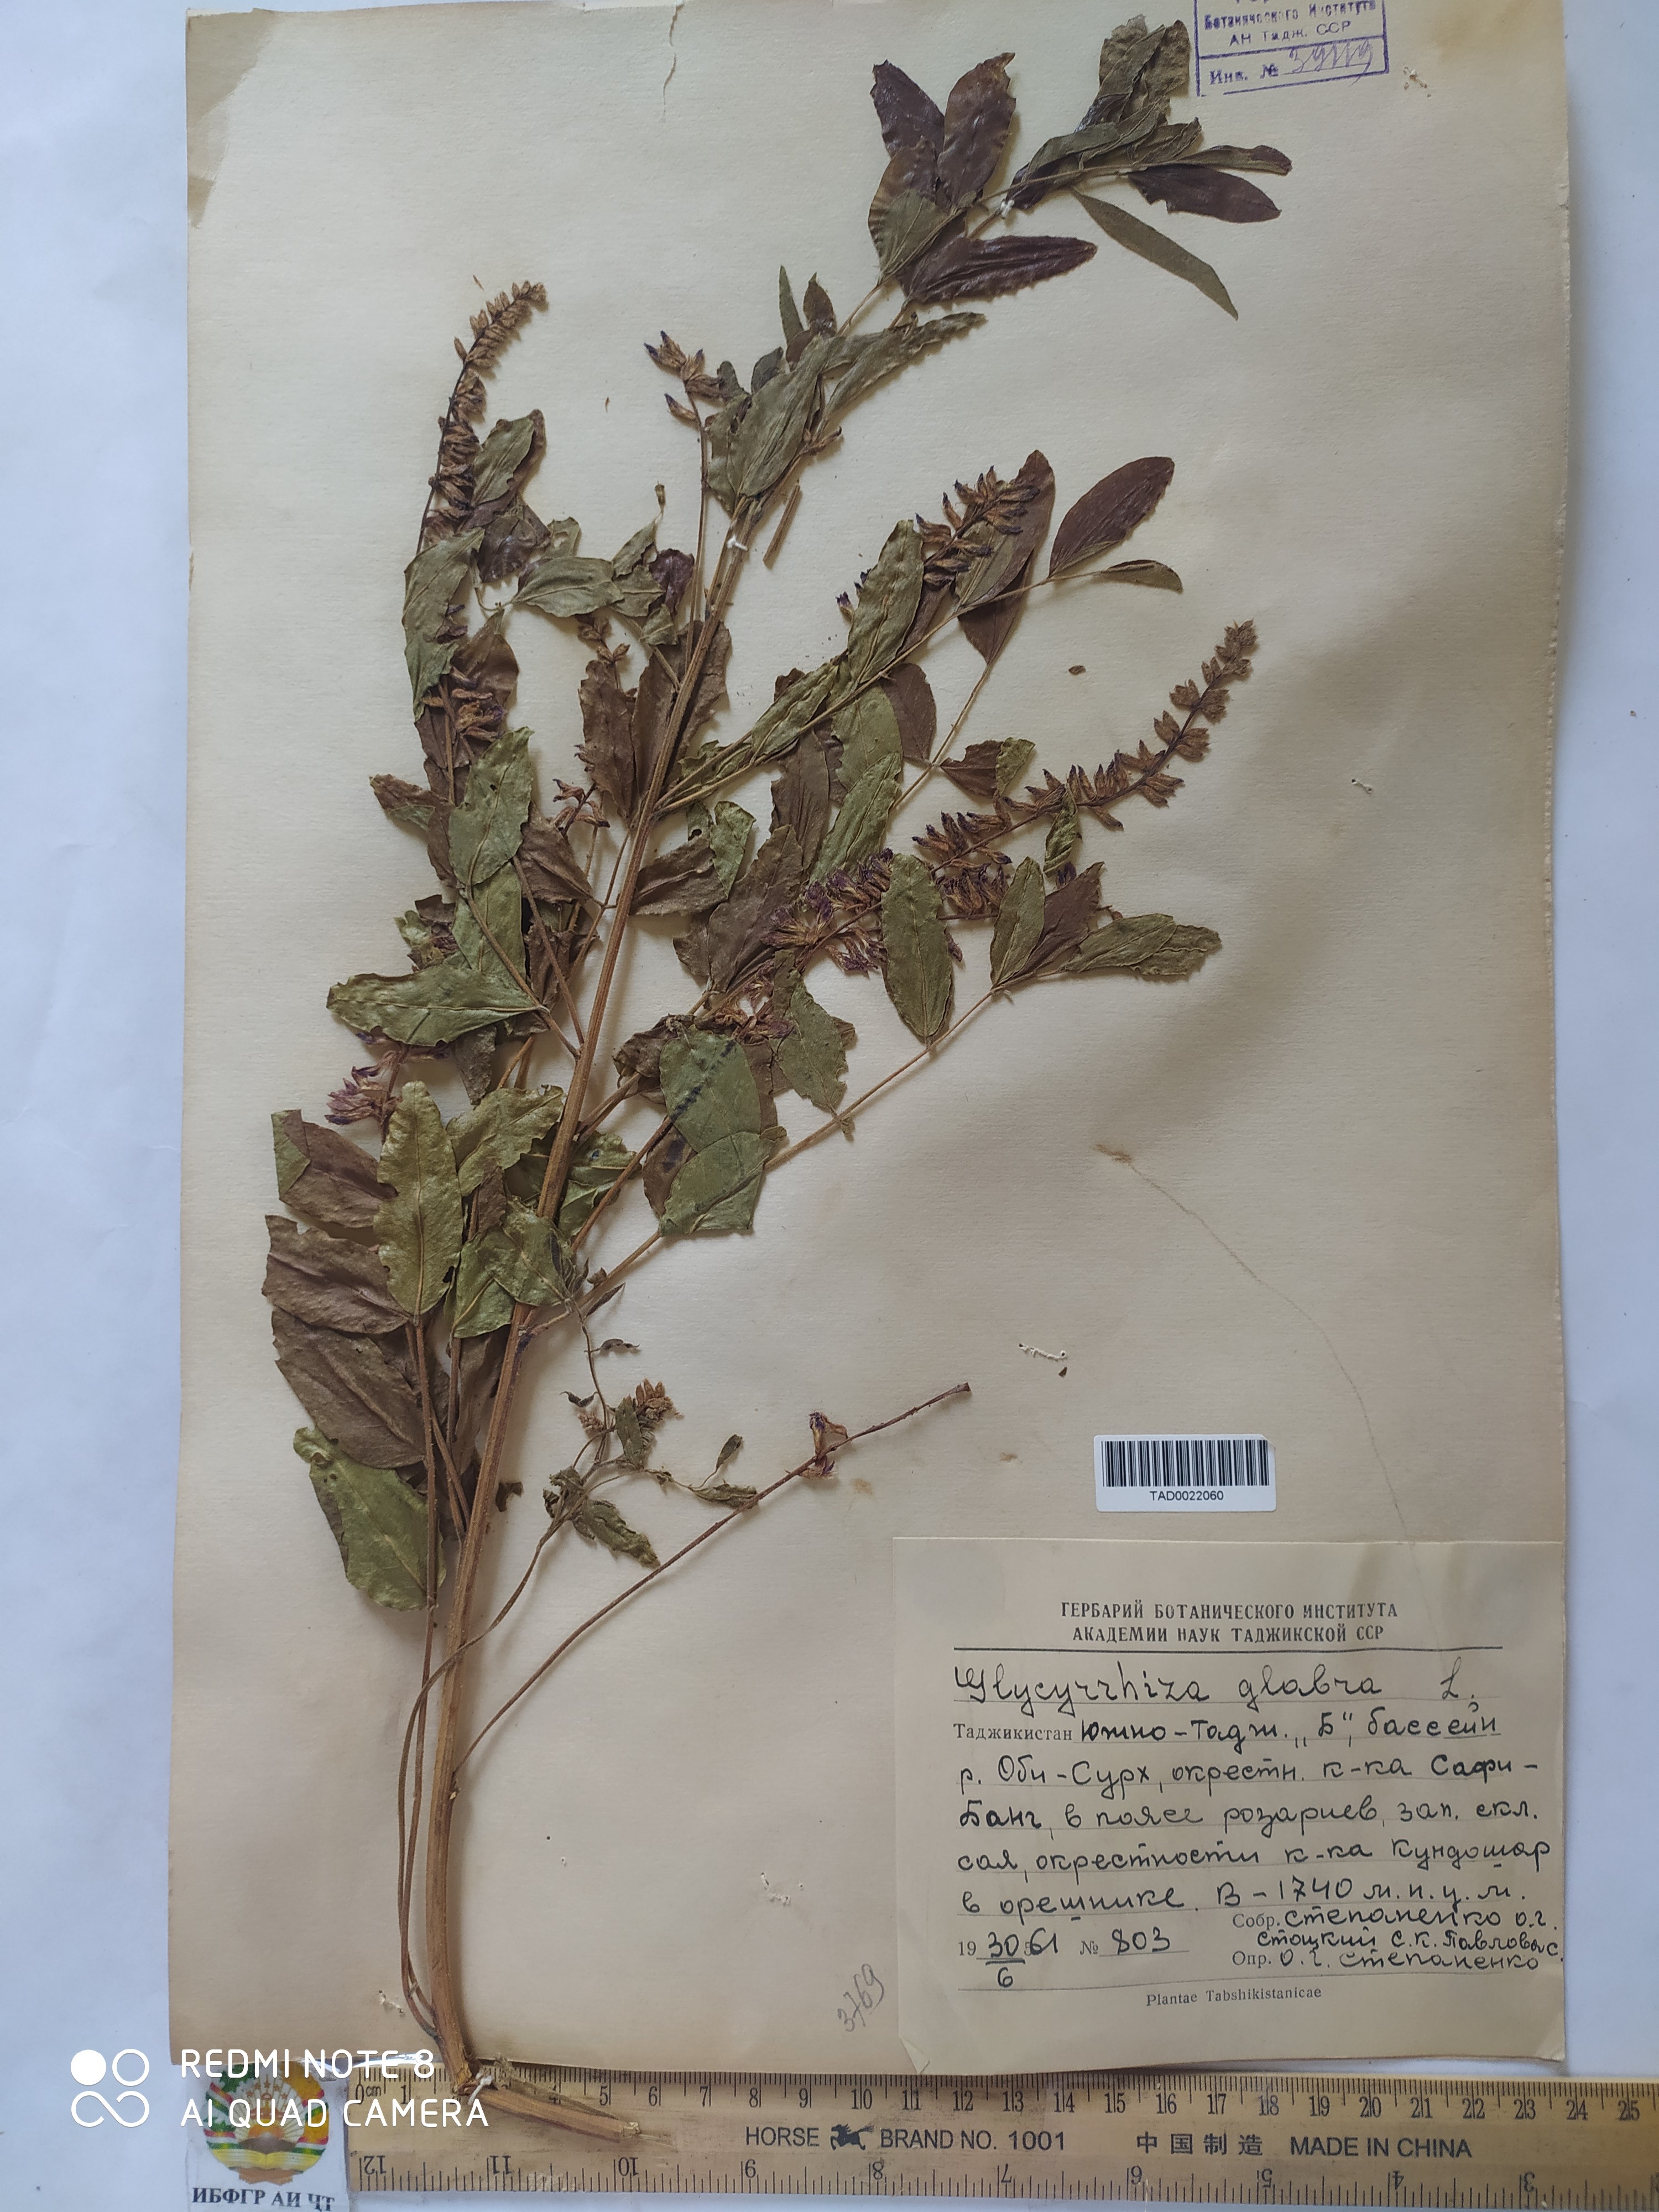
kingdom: Plantae
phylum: Tracheophyta
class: Magnoliopsida
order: Fabales
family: Fabaceae
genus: Glycyrrhiza
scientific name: Glycyrrhiza glabra
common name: Liquorice
